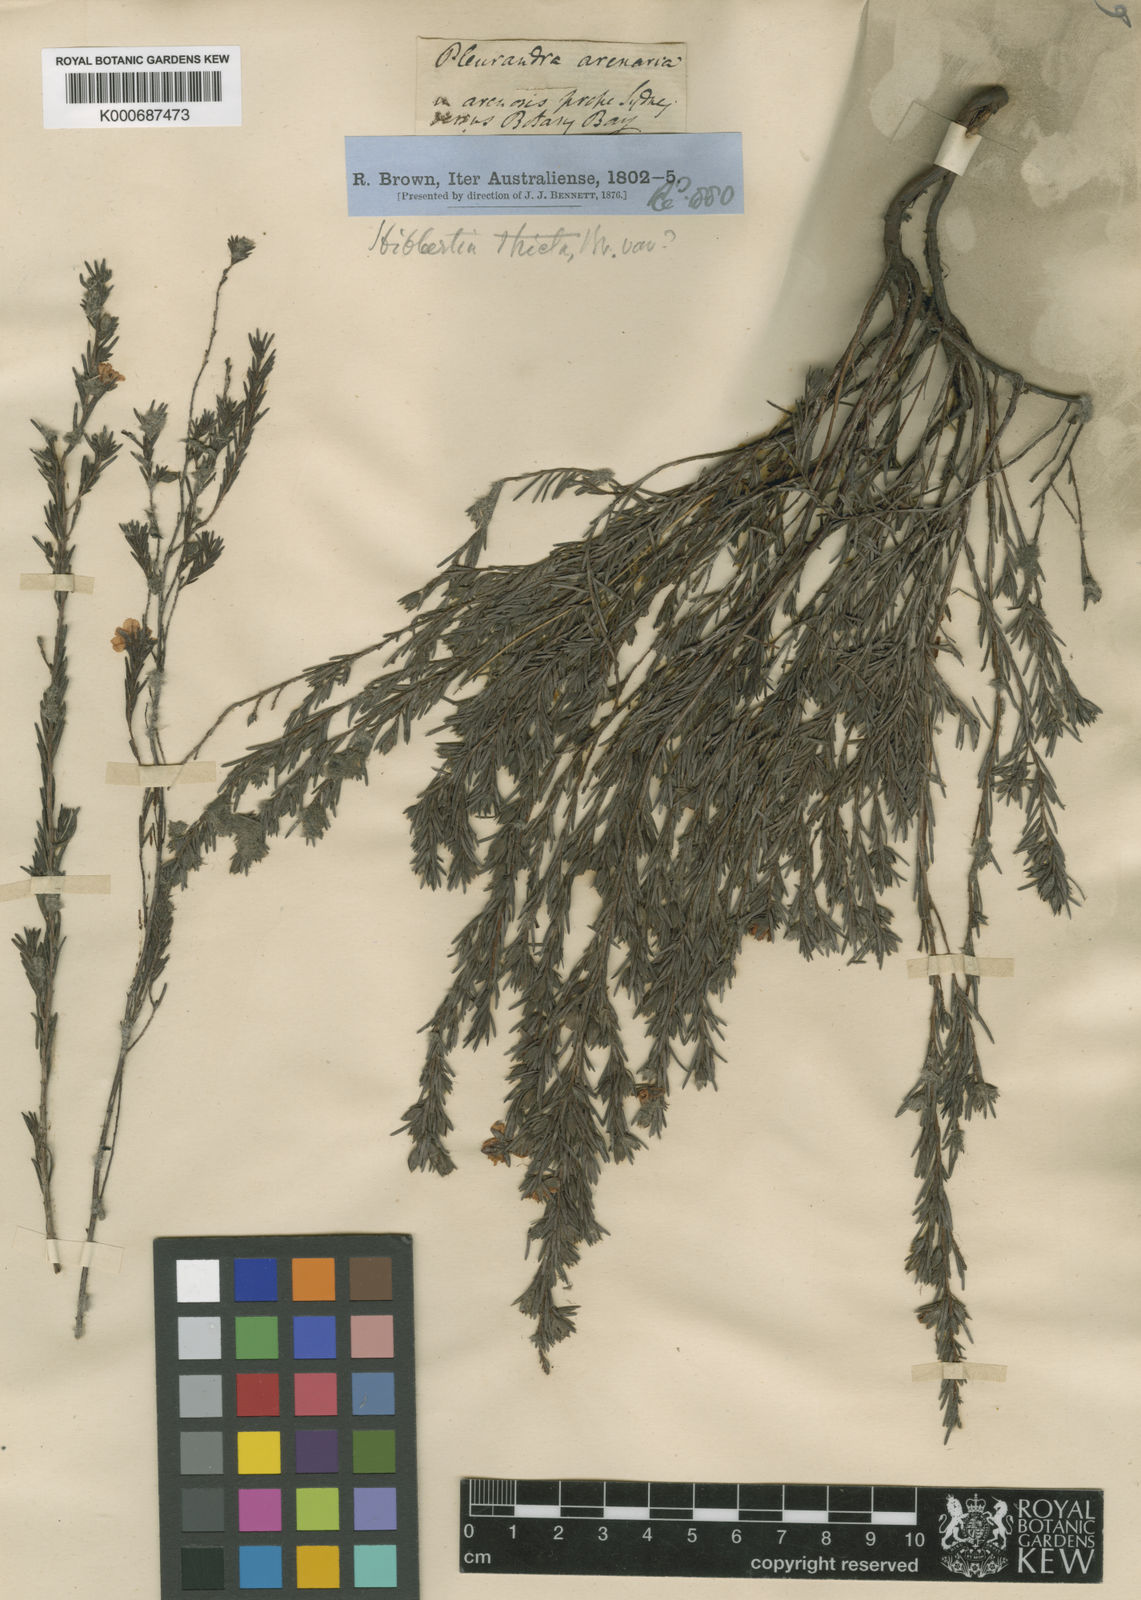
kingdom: Plantae
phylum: Tracheophyta
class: Magnoliopsida
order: Dilleniales
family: Dilleniaceae
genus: Hibbertia
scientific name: Hibbertia
